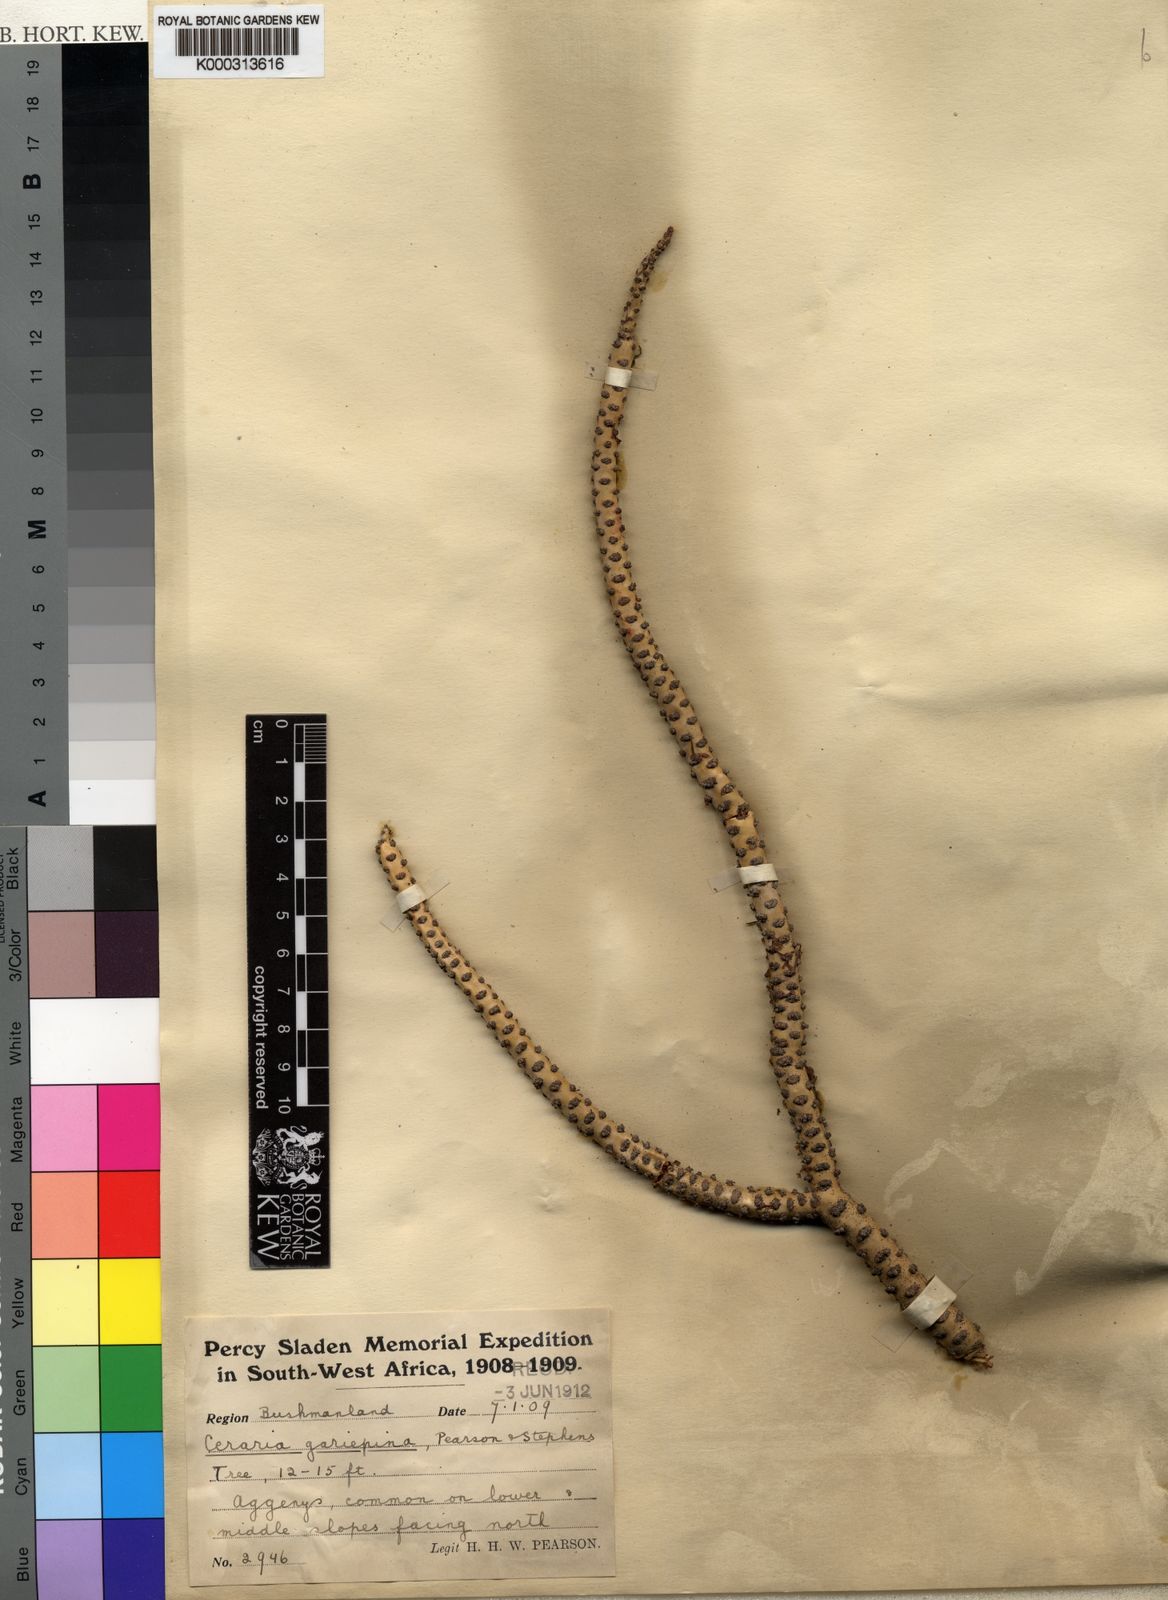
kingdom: Plantae
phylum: Tracheophyta
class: Magnoliopsida
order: Caryophyllales
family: Didiereaceae
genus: Portulacaria
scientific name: Portulacaria namaquensis
